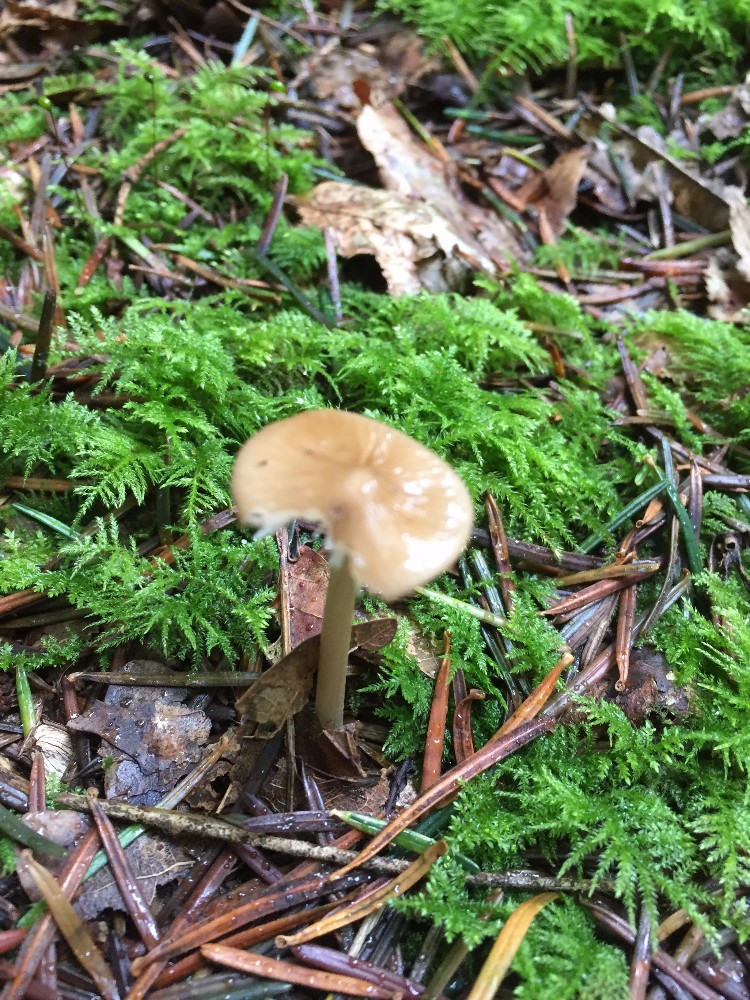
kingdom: Fungi
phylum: Basidiomycota
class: Agaricomycetes
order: Agaricales
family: Physalacriaceae
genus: Hymenopellis
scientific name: Hymenopellis radicata
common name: almindelig pælerodshat
